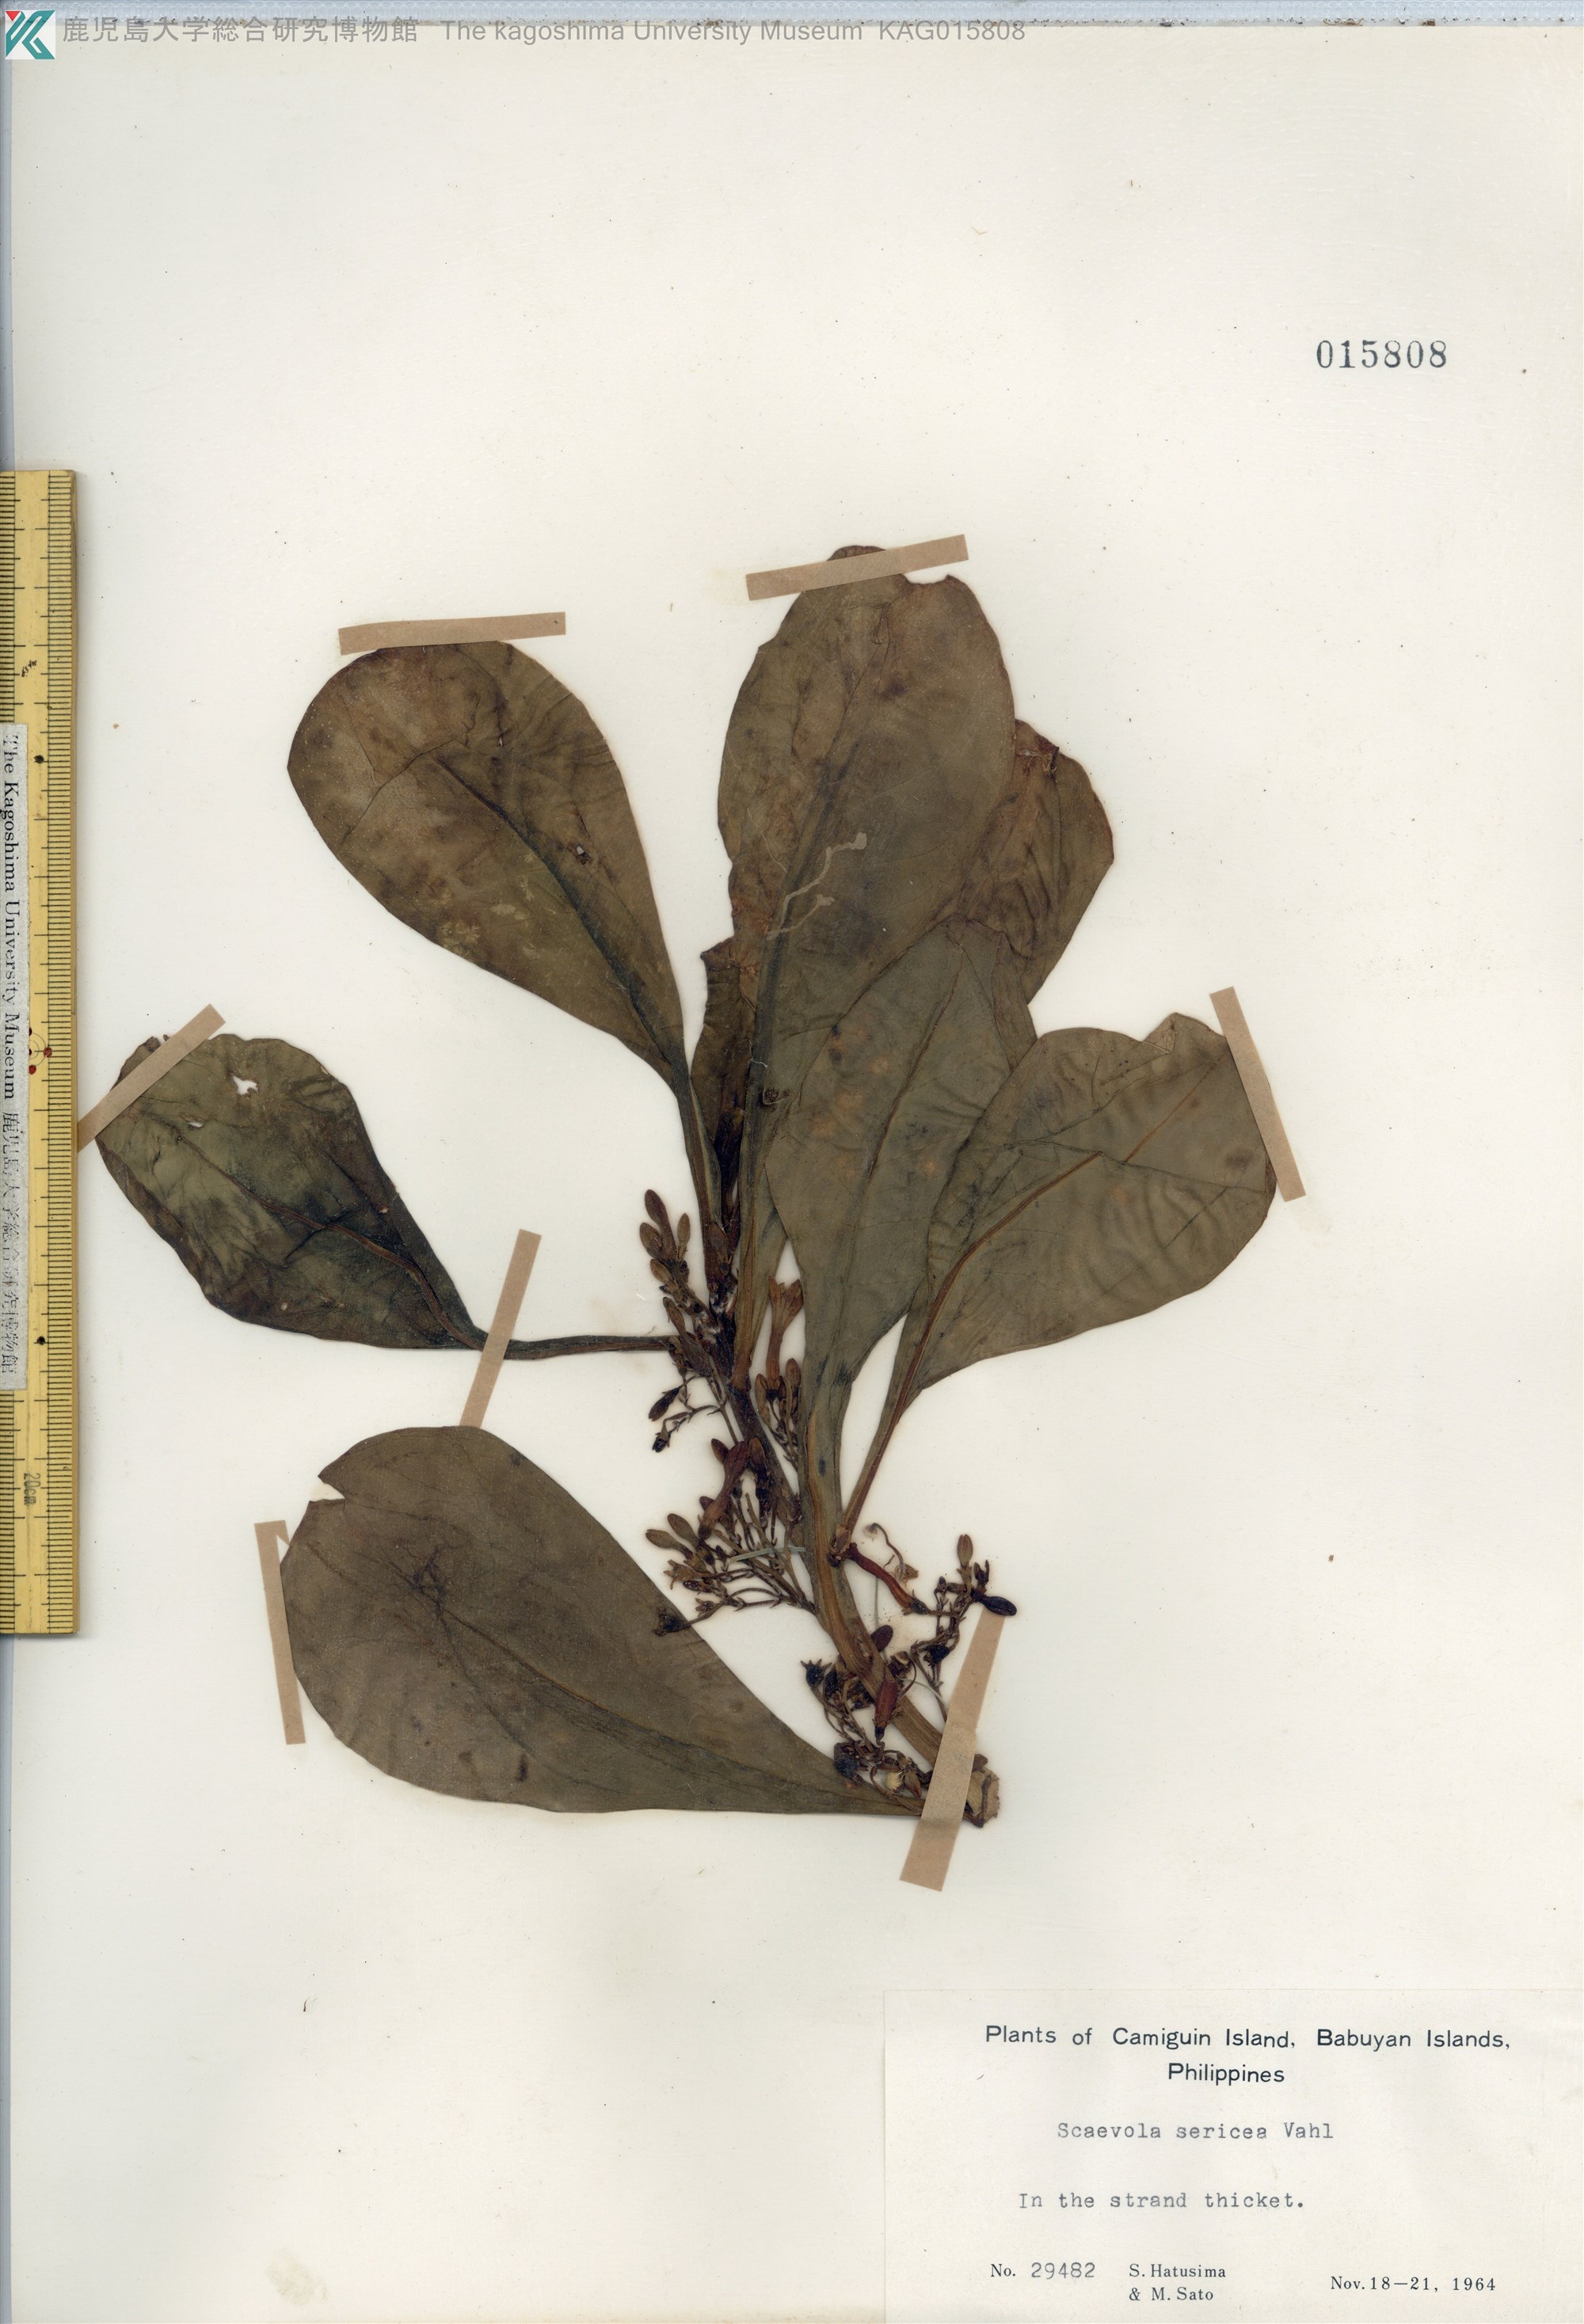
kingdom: Plantae
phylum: Tracheophyta
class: Magnoliopsida
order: Asterales
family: Goodeniaceae
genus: Scaevola
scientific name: Scaevola taccada
